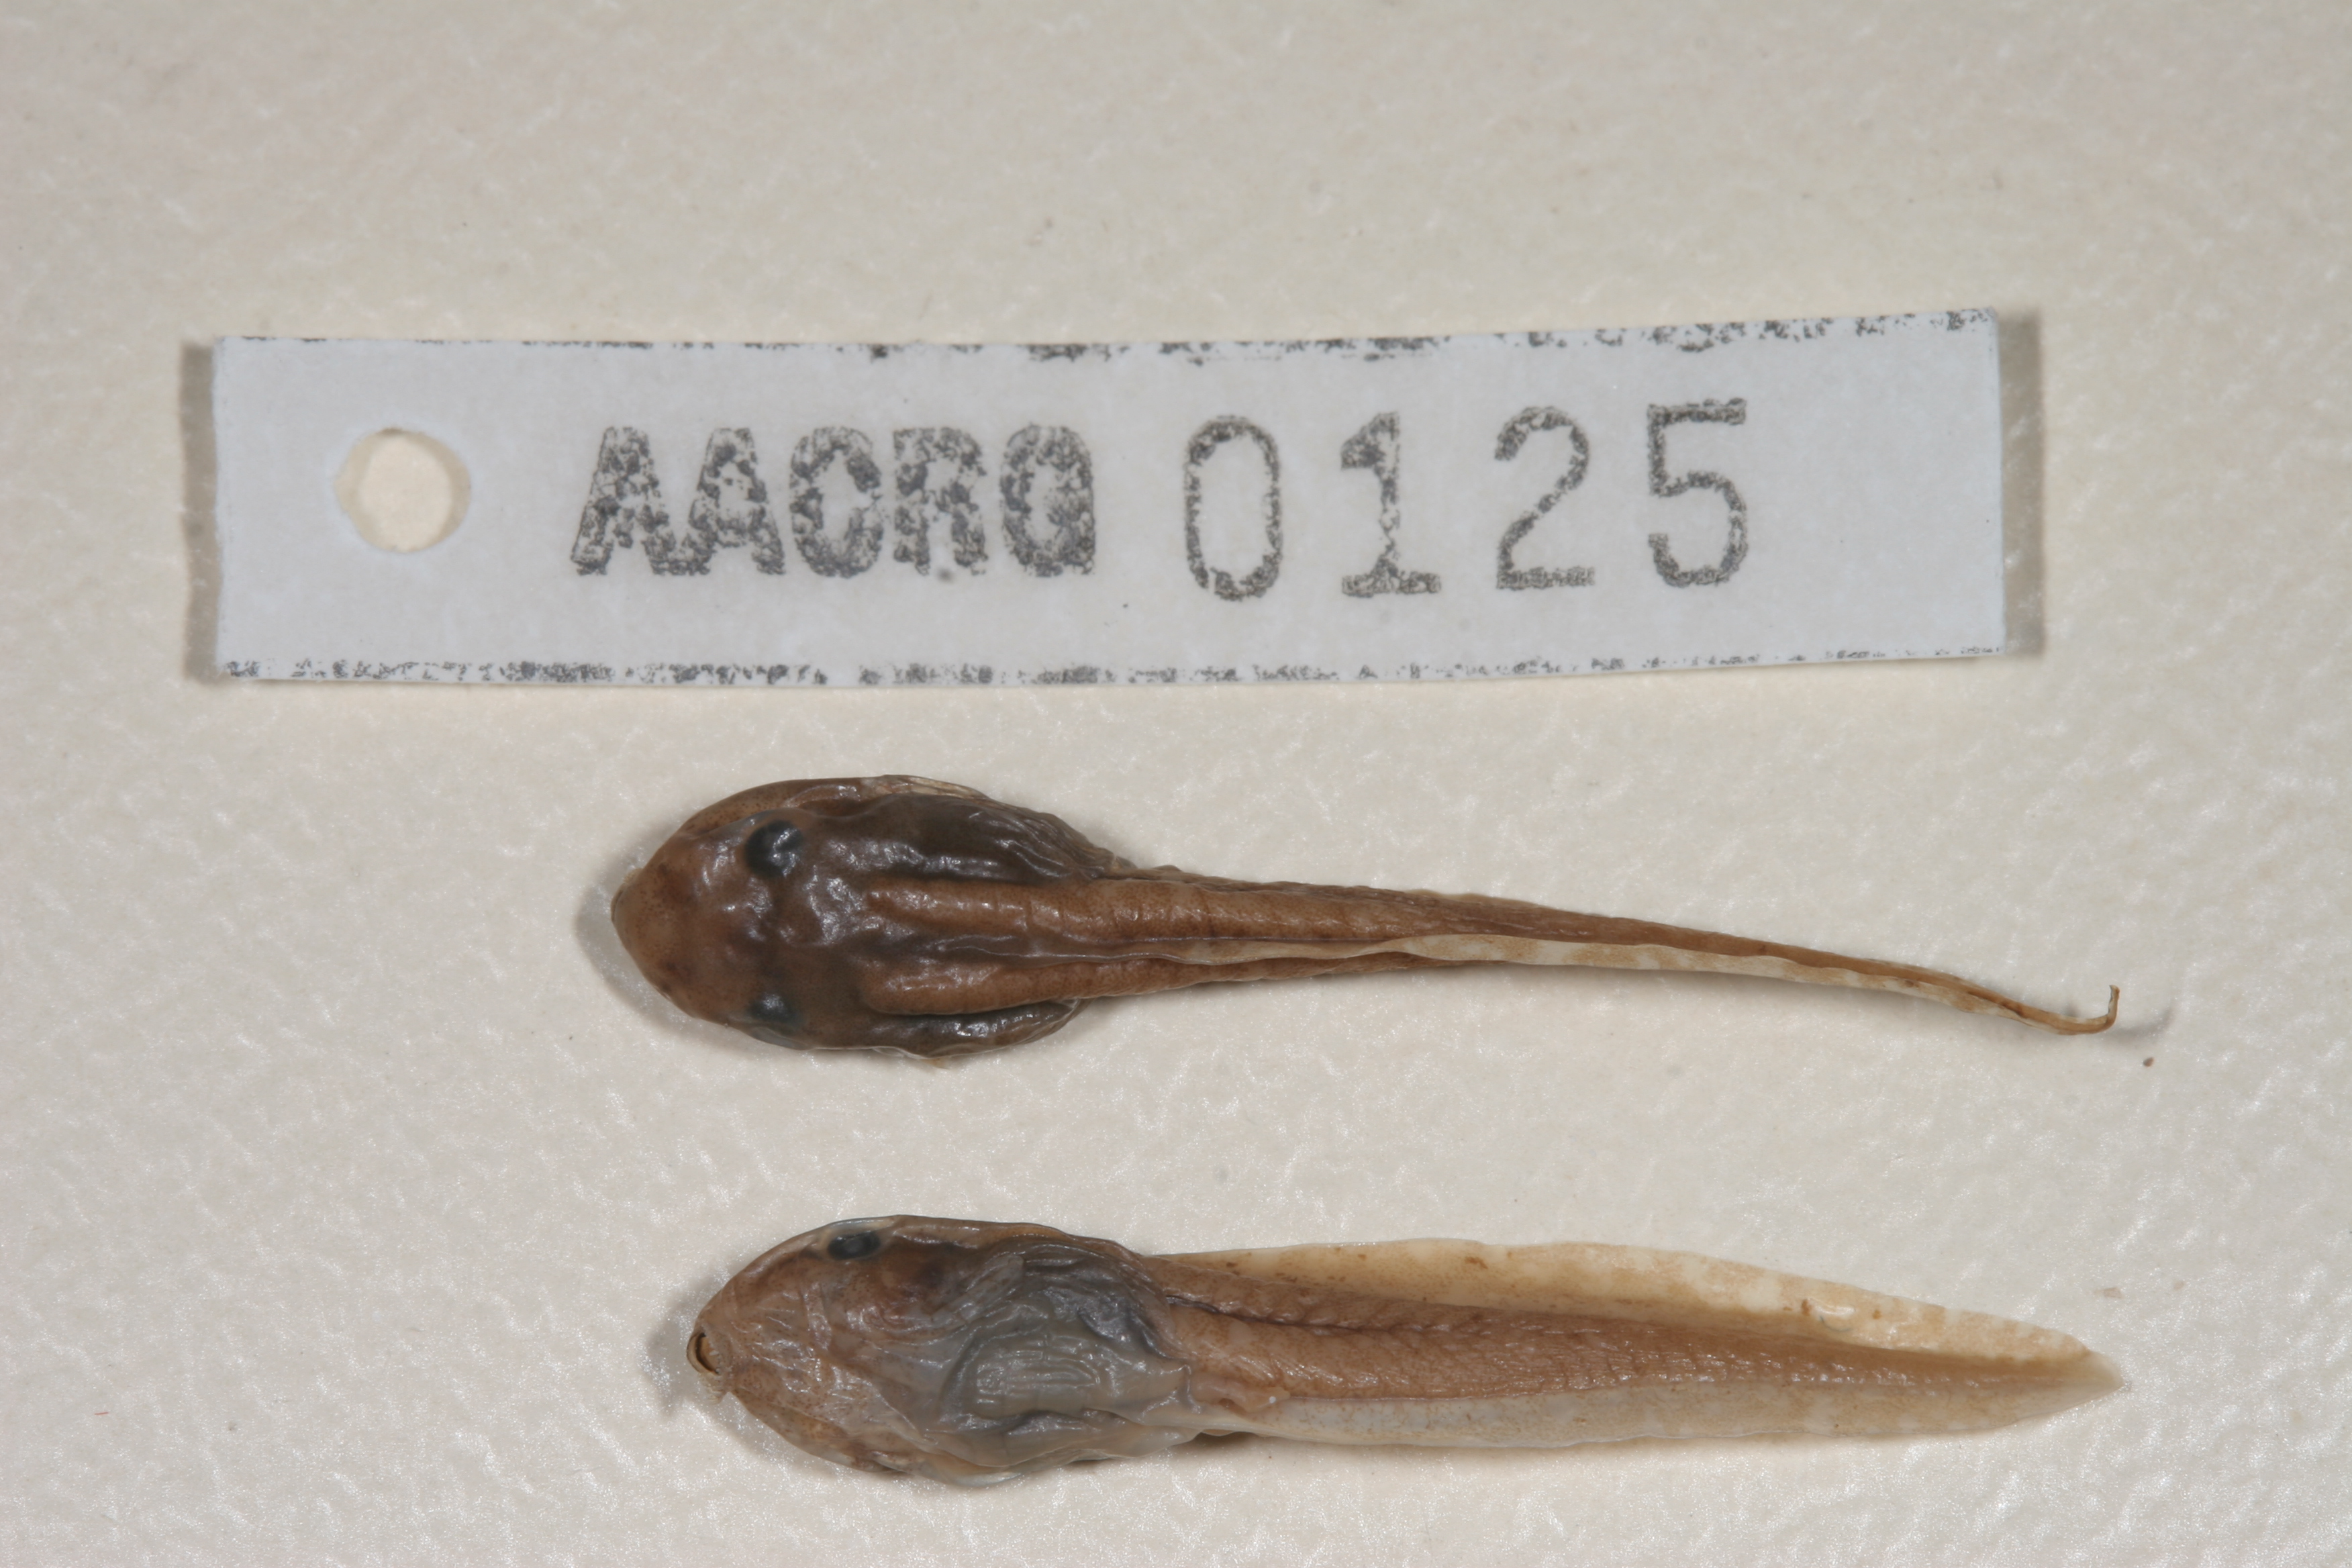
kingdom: Animalia
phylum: Chordata
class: Amphibia
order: Anura
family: Hyperoliidae
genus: Hyperolius
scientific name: Hyperolius semidiscus
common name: Yellow-striped reed frog
